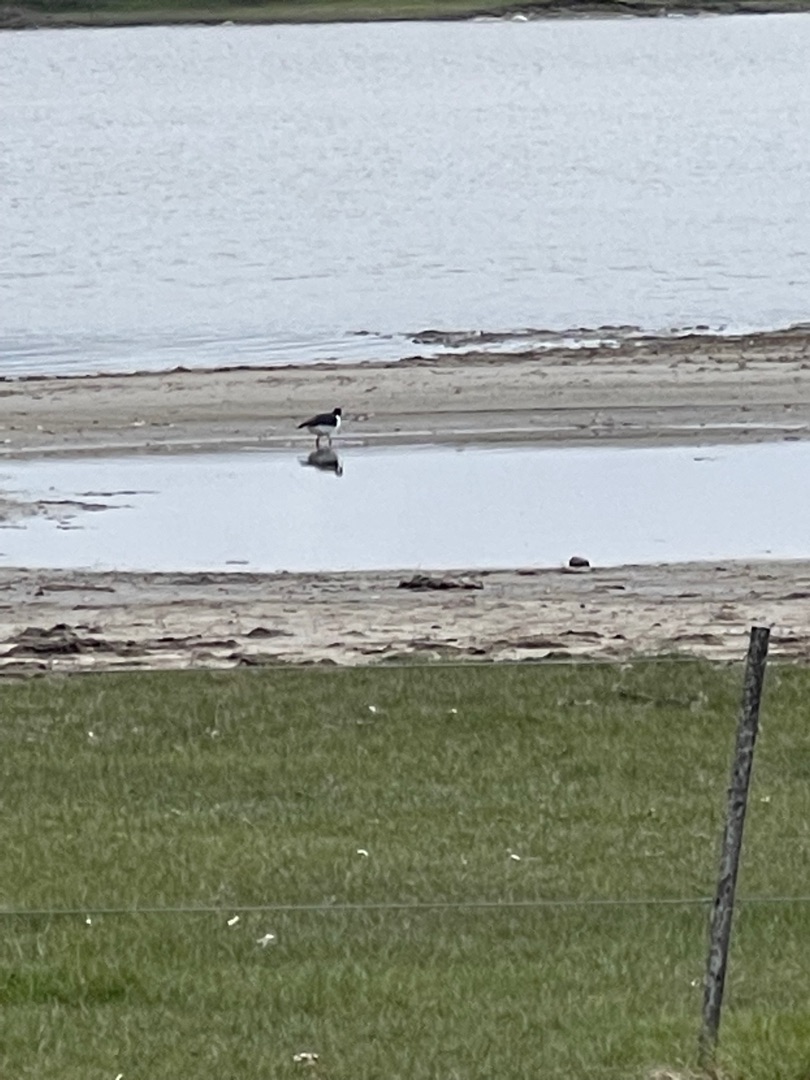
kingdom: Animalia
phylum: Chordata
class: Aves
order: Charadriiformes
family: Haematopodidae
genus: Haematopus
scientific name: Haematopus ostralegus
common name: Strandskade
